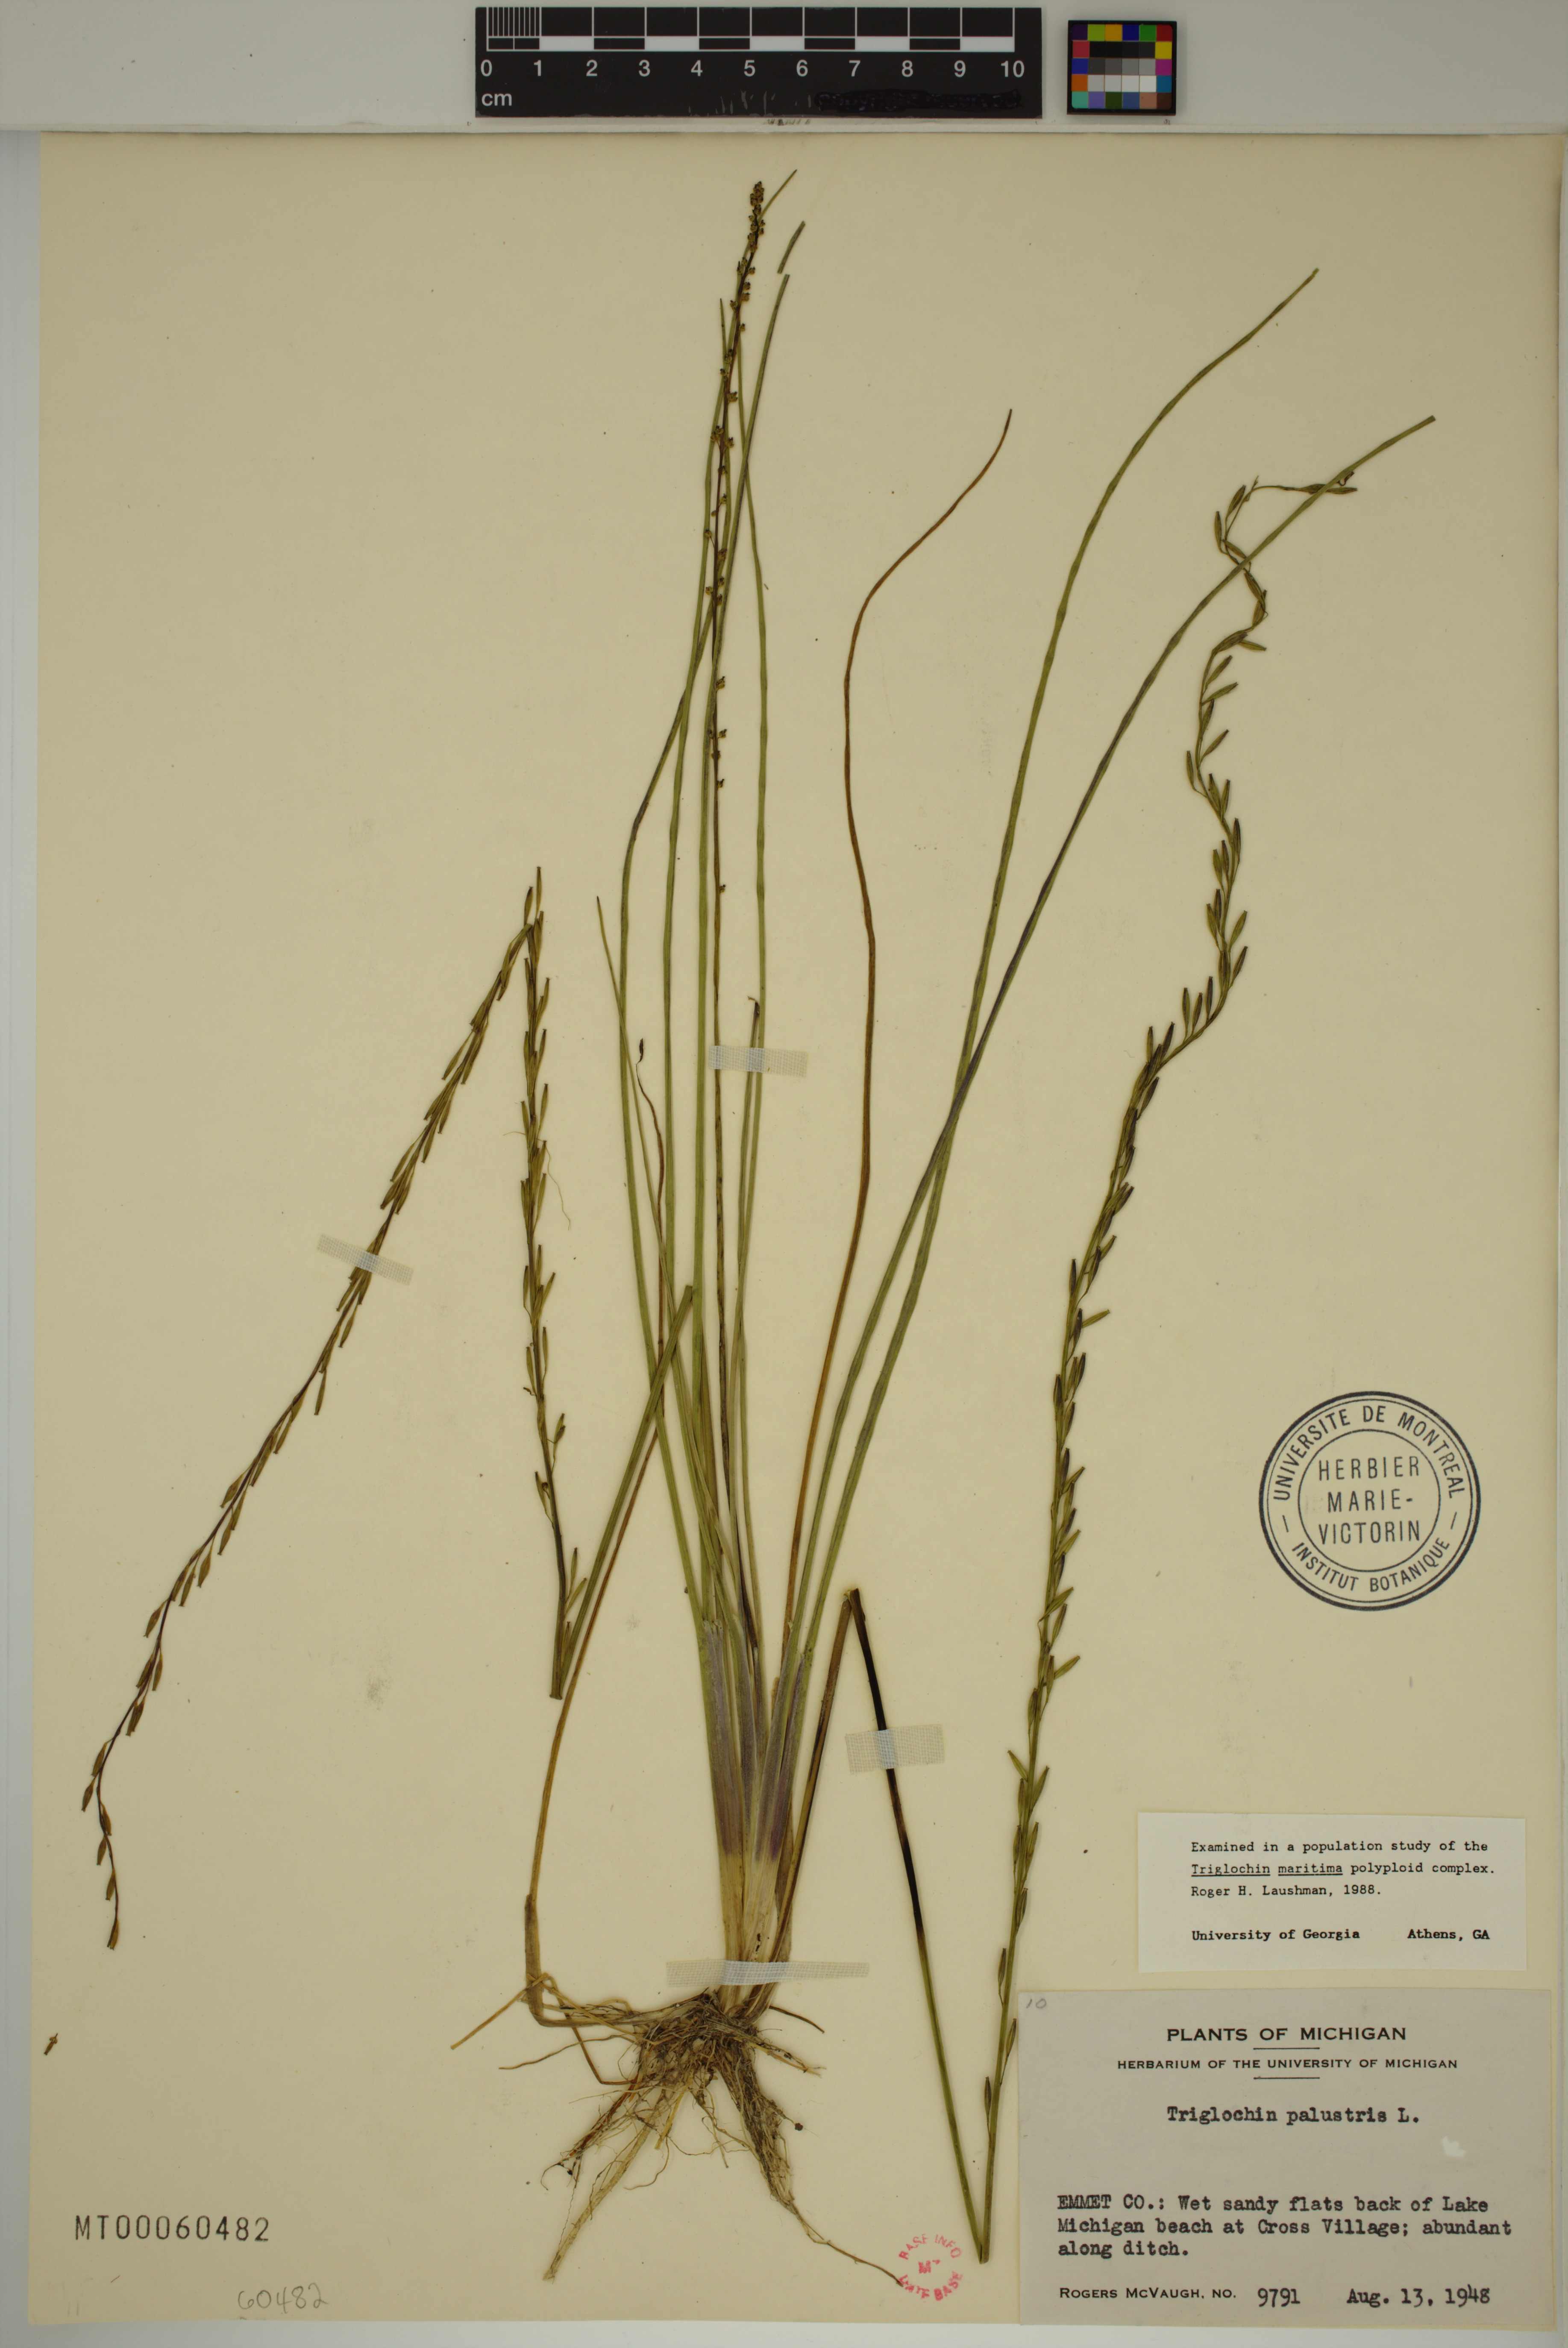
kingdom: Plantae
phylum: Tracheophyta
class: Liliopsida
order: Alismatales
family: Juncaginaceae
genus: Triglochin
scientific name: Triglochin palustris
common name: Marsh arrowgrass
